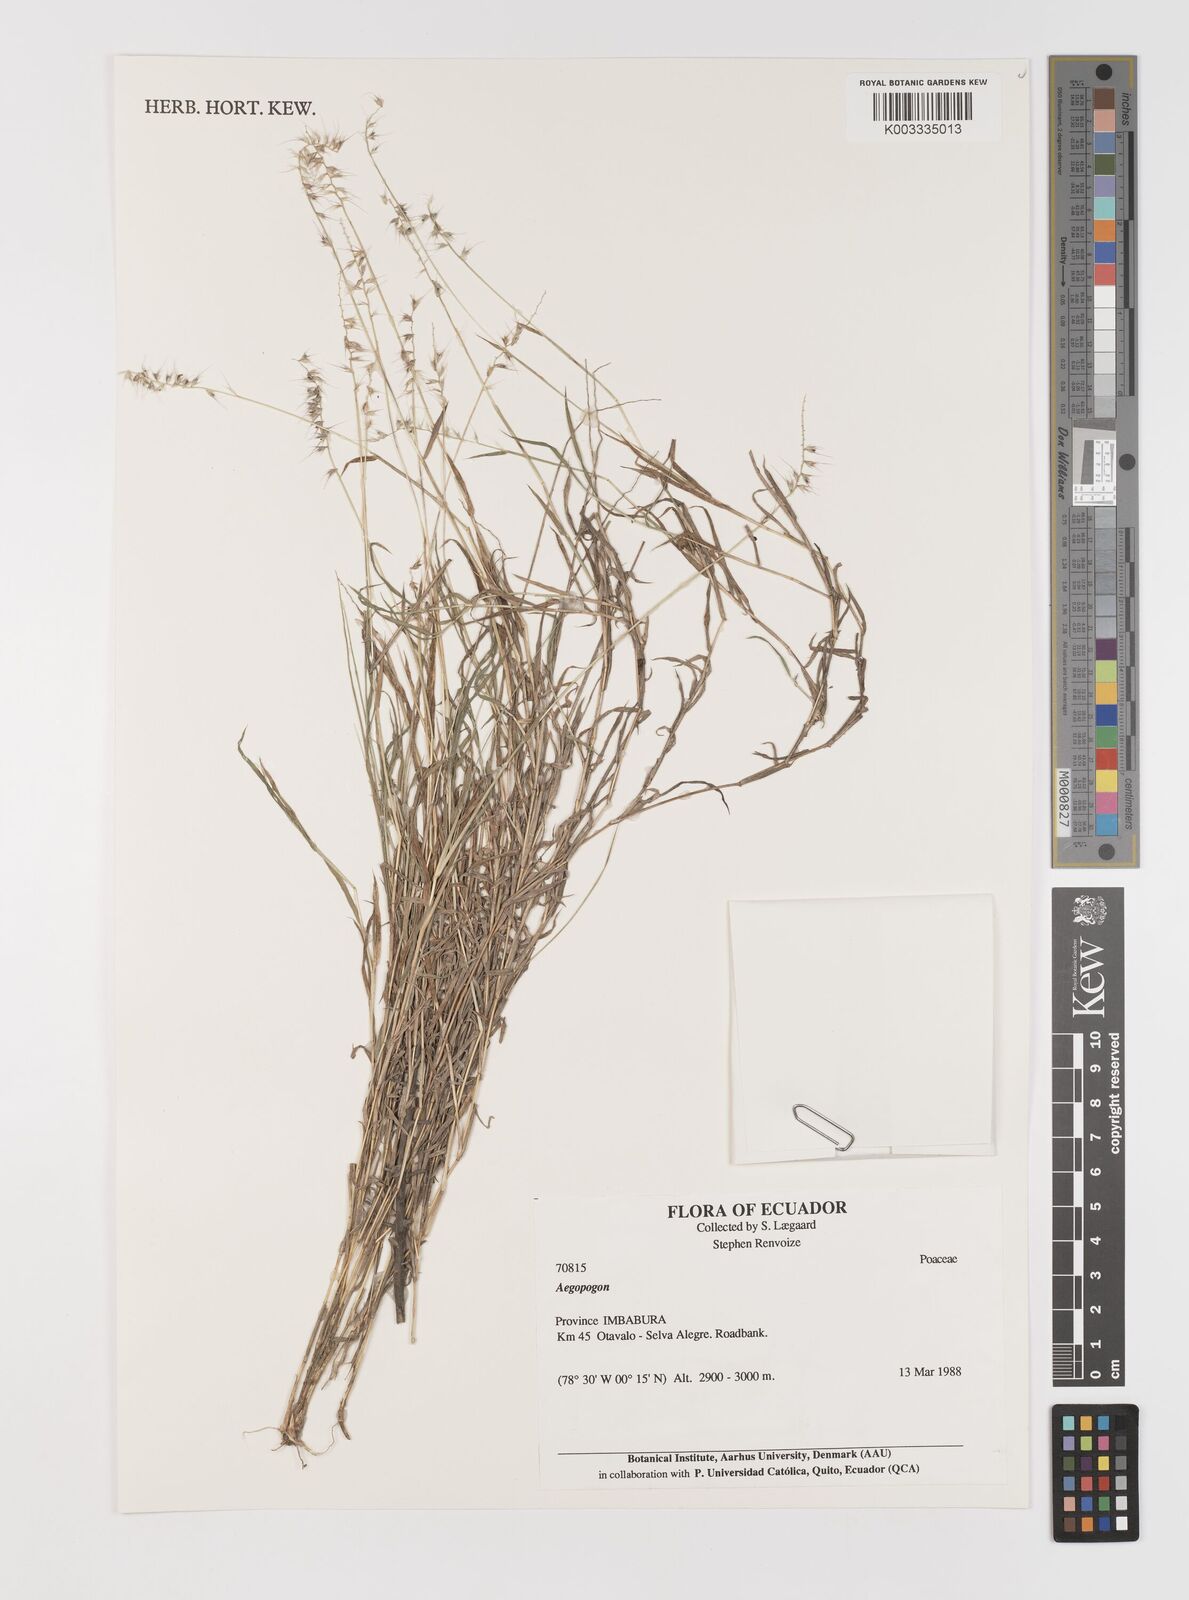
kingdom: Plantae
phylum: Tracheophyta
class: Liliopsida
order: Poales
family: Poaceae
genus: Muhlenbergia
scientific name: Muhlenbergia cenchroides
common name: Relaxgrass
